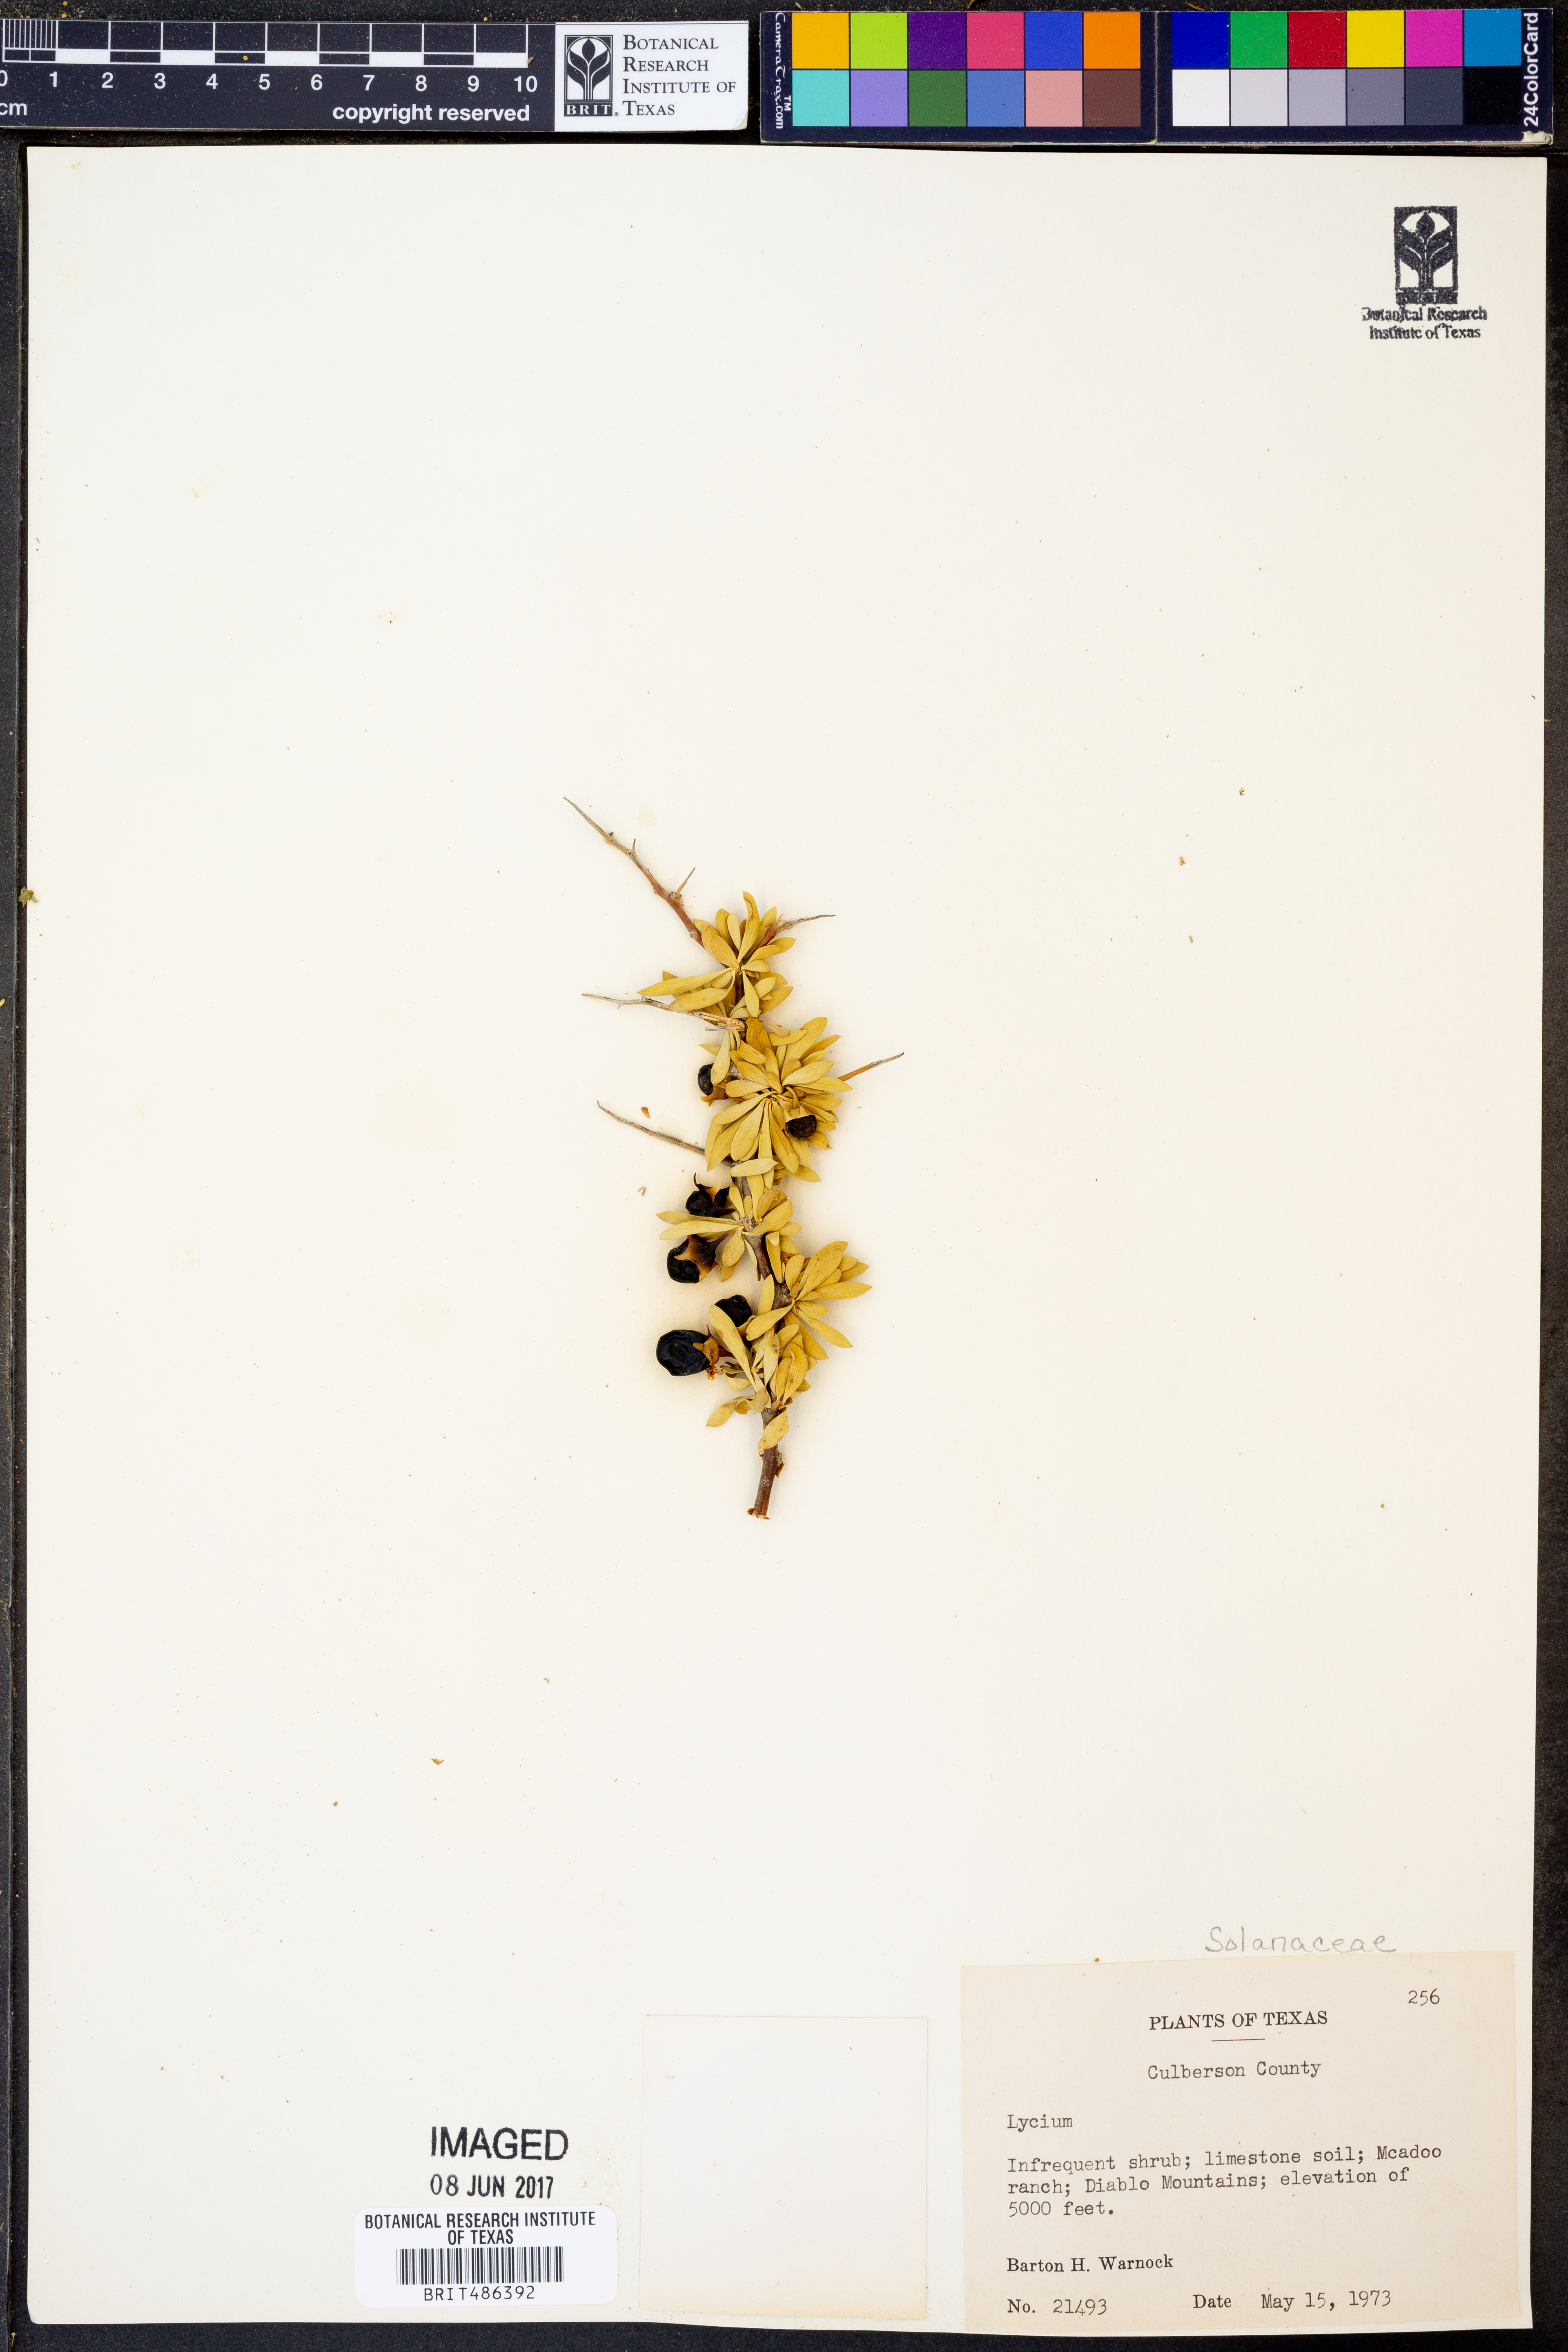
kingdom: Plantae
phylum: Tracheophyta
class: Magnoliopsida
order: Solanales
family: Solanaceae
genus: Lycium
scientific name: Lycium
